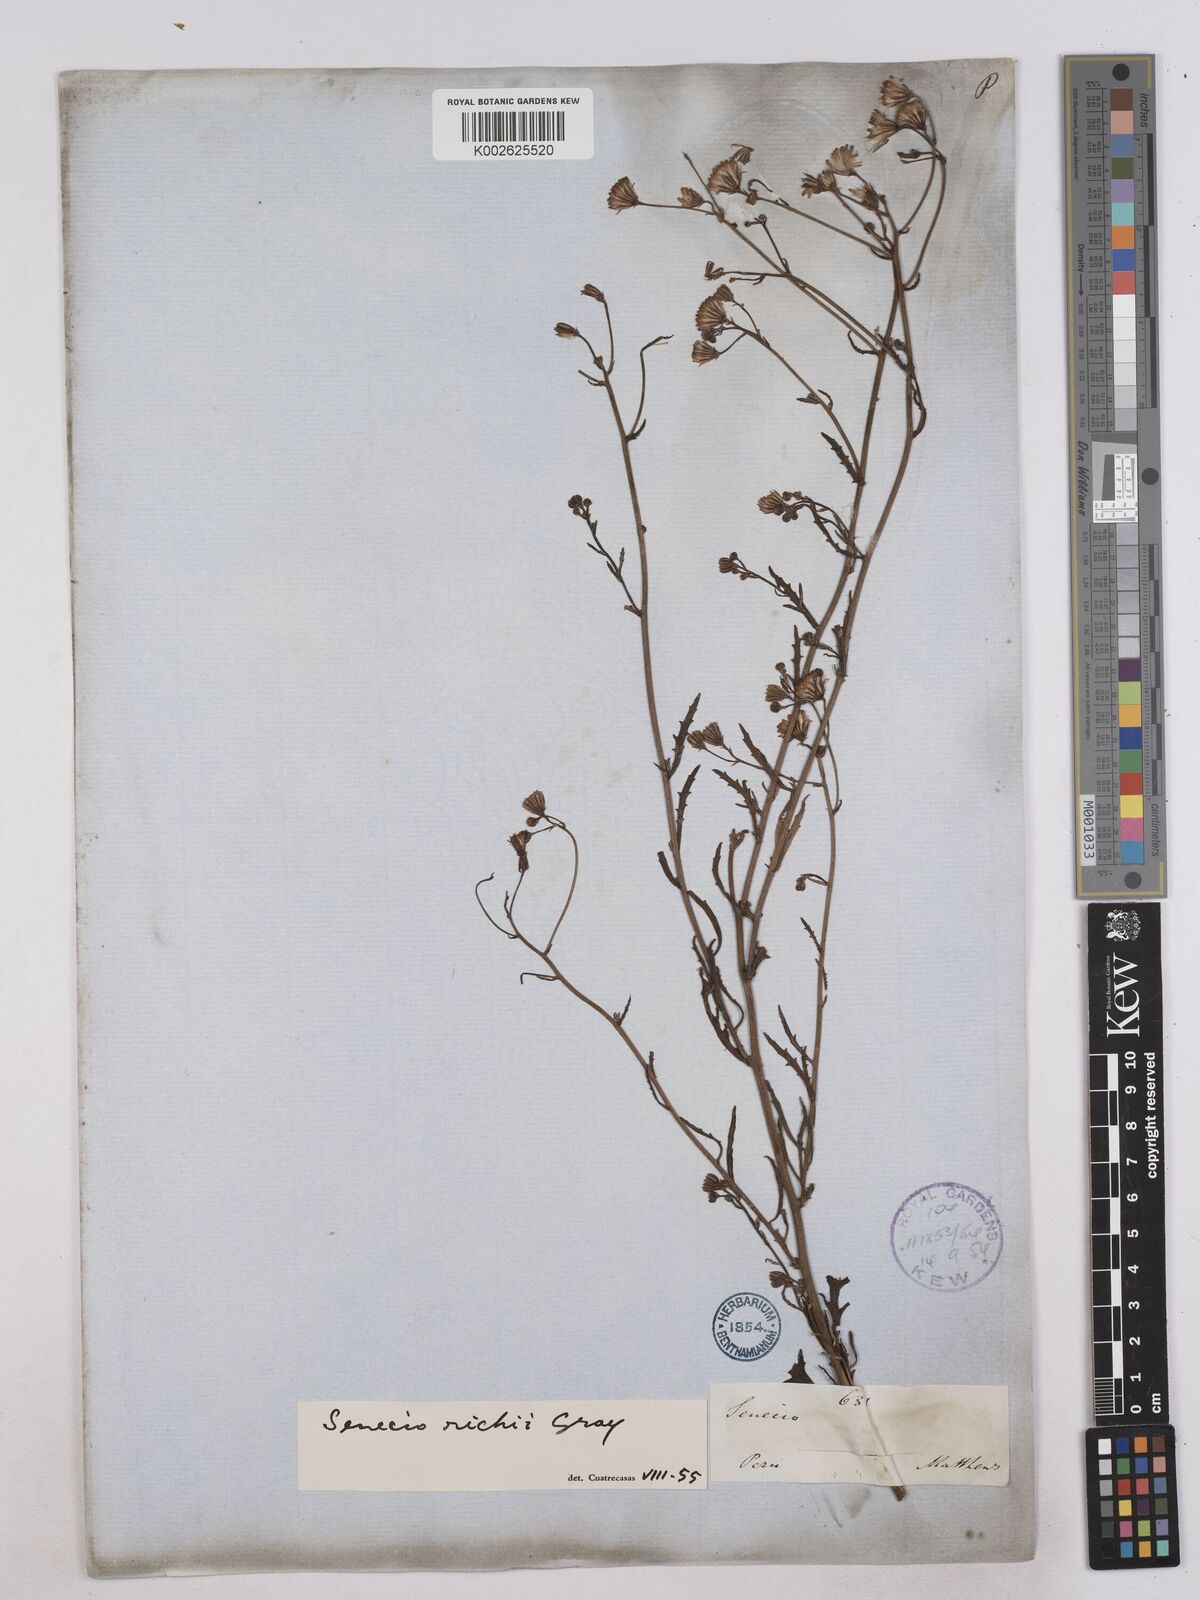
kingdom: Plantae
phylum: Tracheophyta
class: Magnoliopsida
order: Asterales
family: Asteraceae
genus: Senecio
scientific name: Senecio richii
